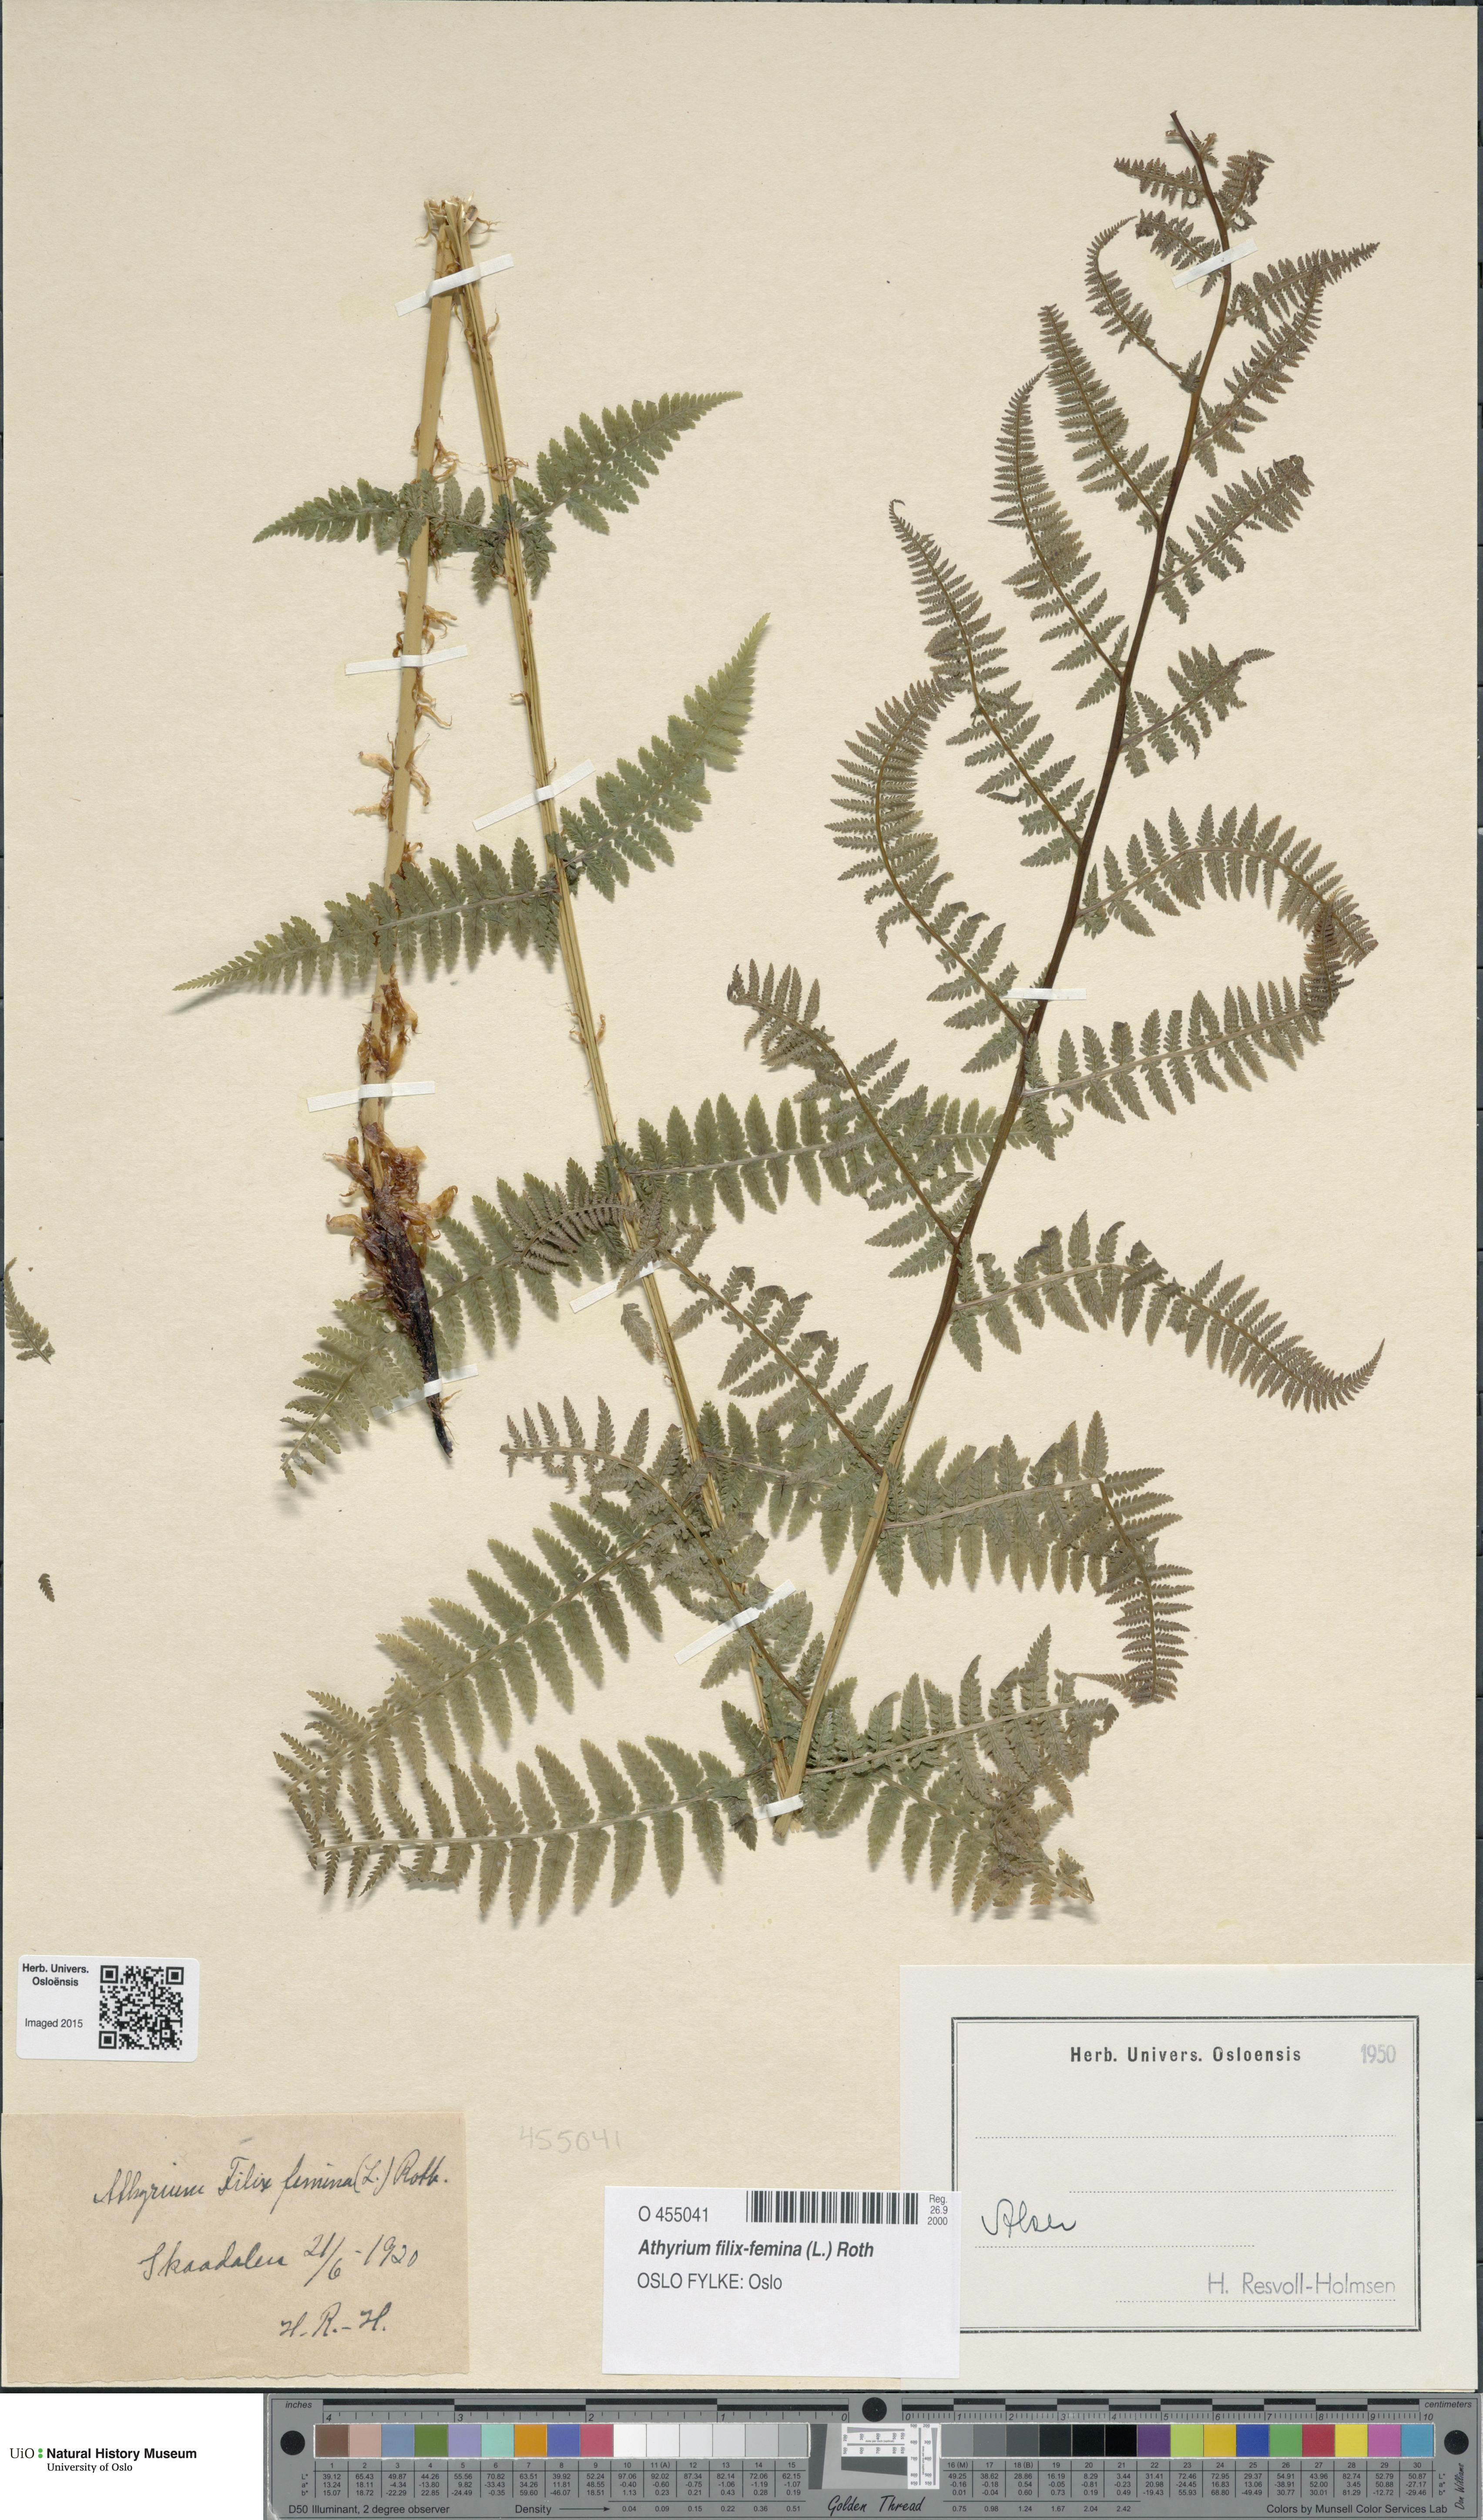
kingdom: Plantae
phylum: Tracheophyta
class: Polypodiopsida
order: Polypodiales
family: Athyriaceae
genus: Athyrium
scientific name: Athyrium filix-femina
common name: Lady fern
